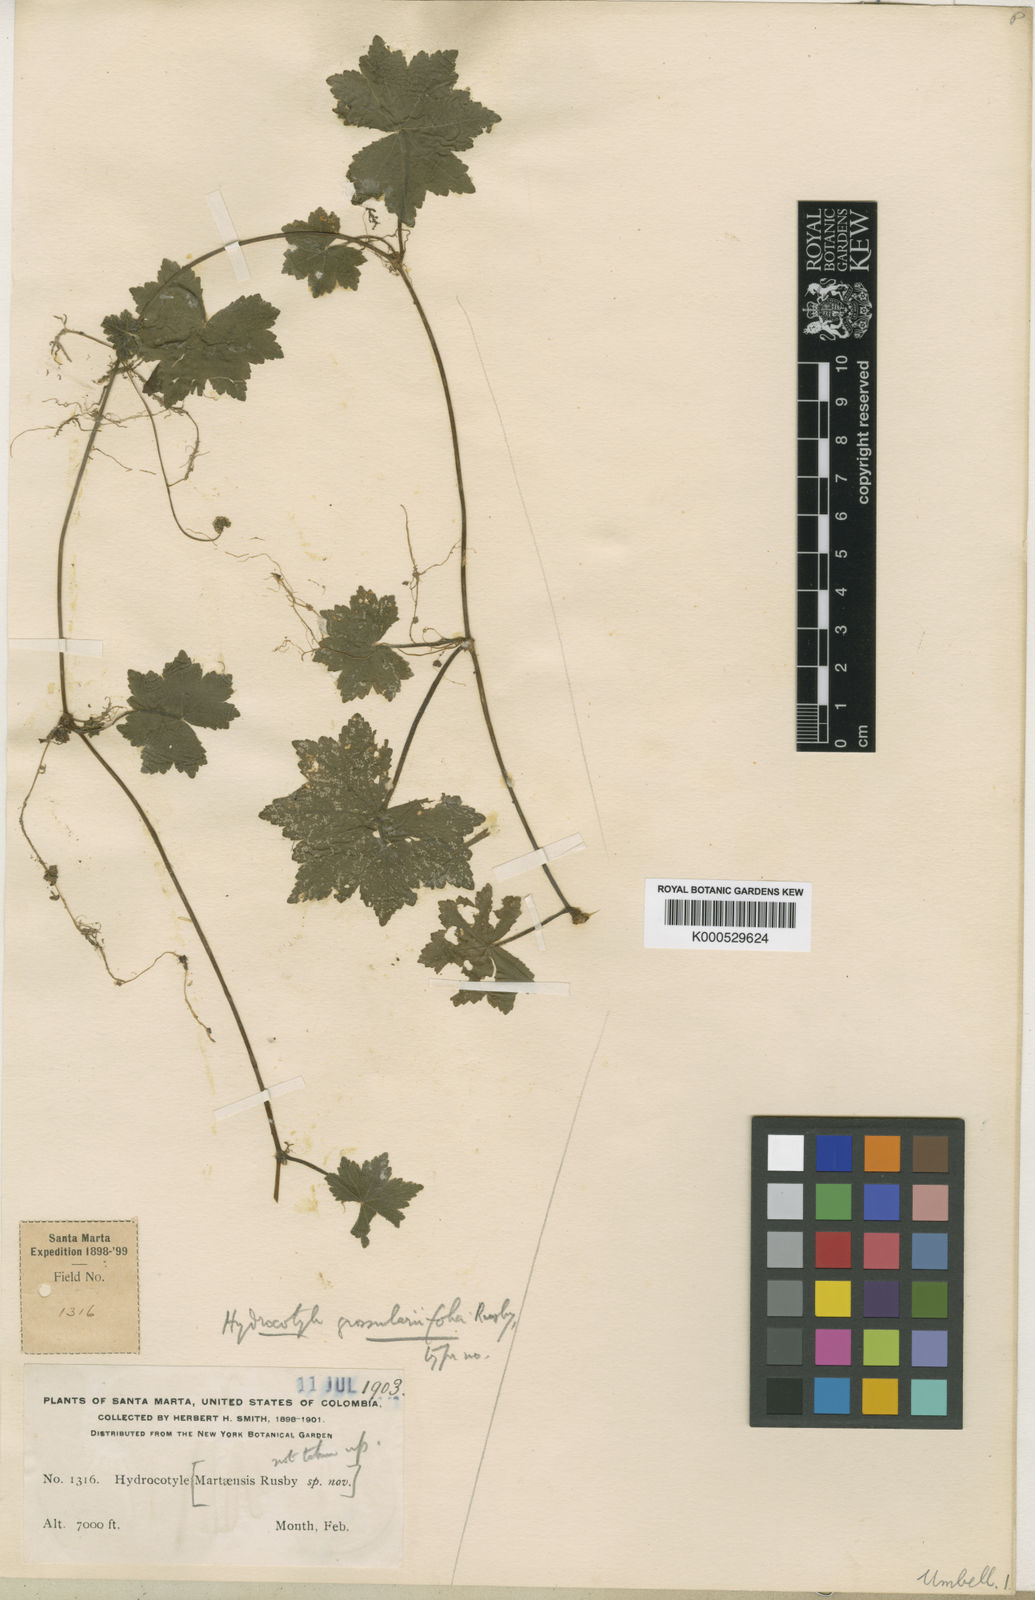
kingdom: Plantae
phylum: Tracheophyta
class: Magnoliopsida
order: Apiales
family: Araliaceae
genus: Hydrocotyle
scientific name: Hydrocotyle grossulariifolia
